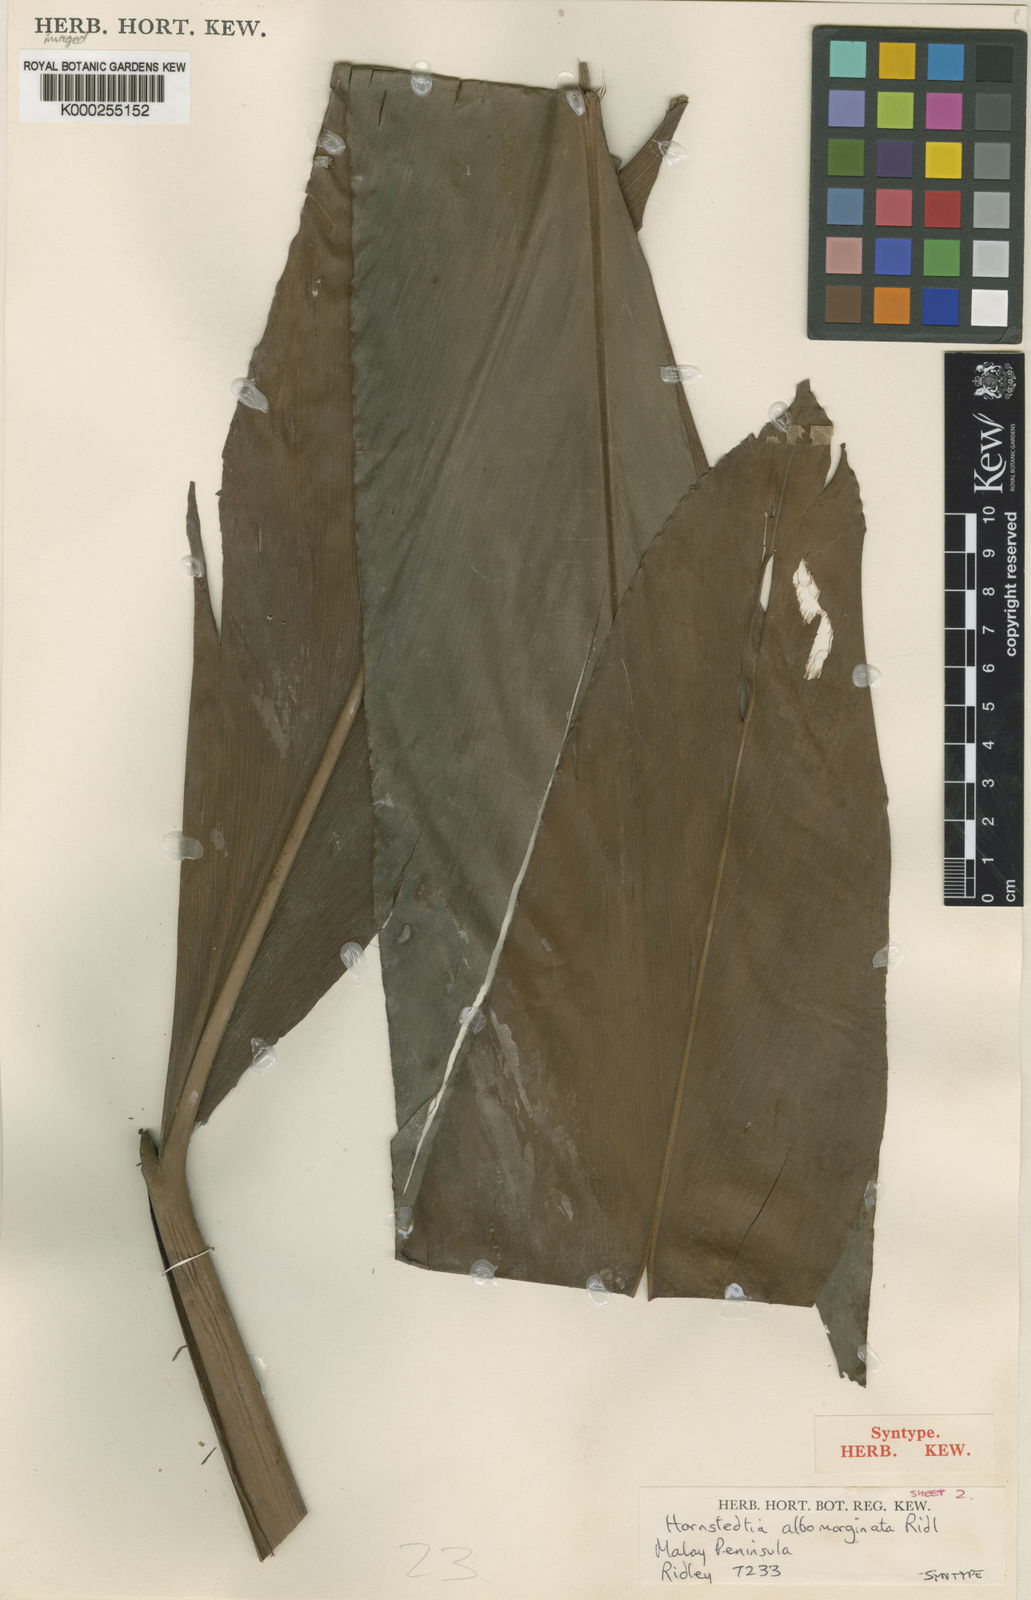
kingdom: Plantae
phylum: Tracheophyta
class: Liliopsida
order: Zingiberales
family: Zingiberaceae
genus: Etlingera
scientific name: Etlingera metriocheilos
